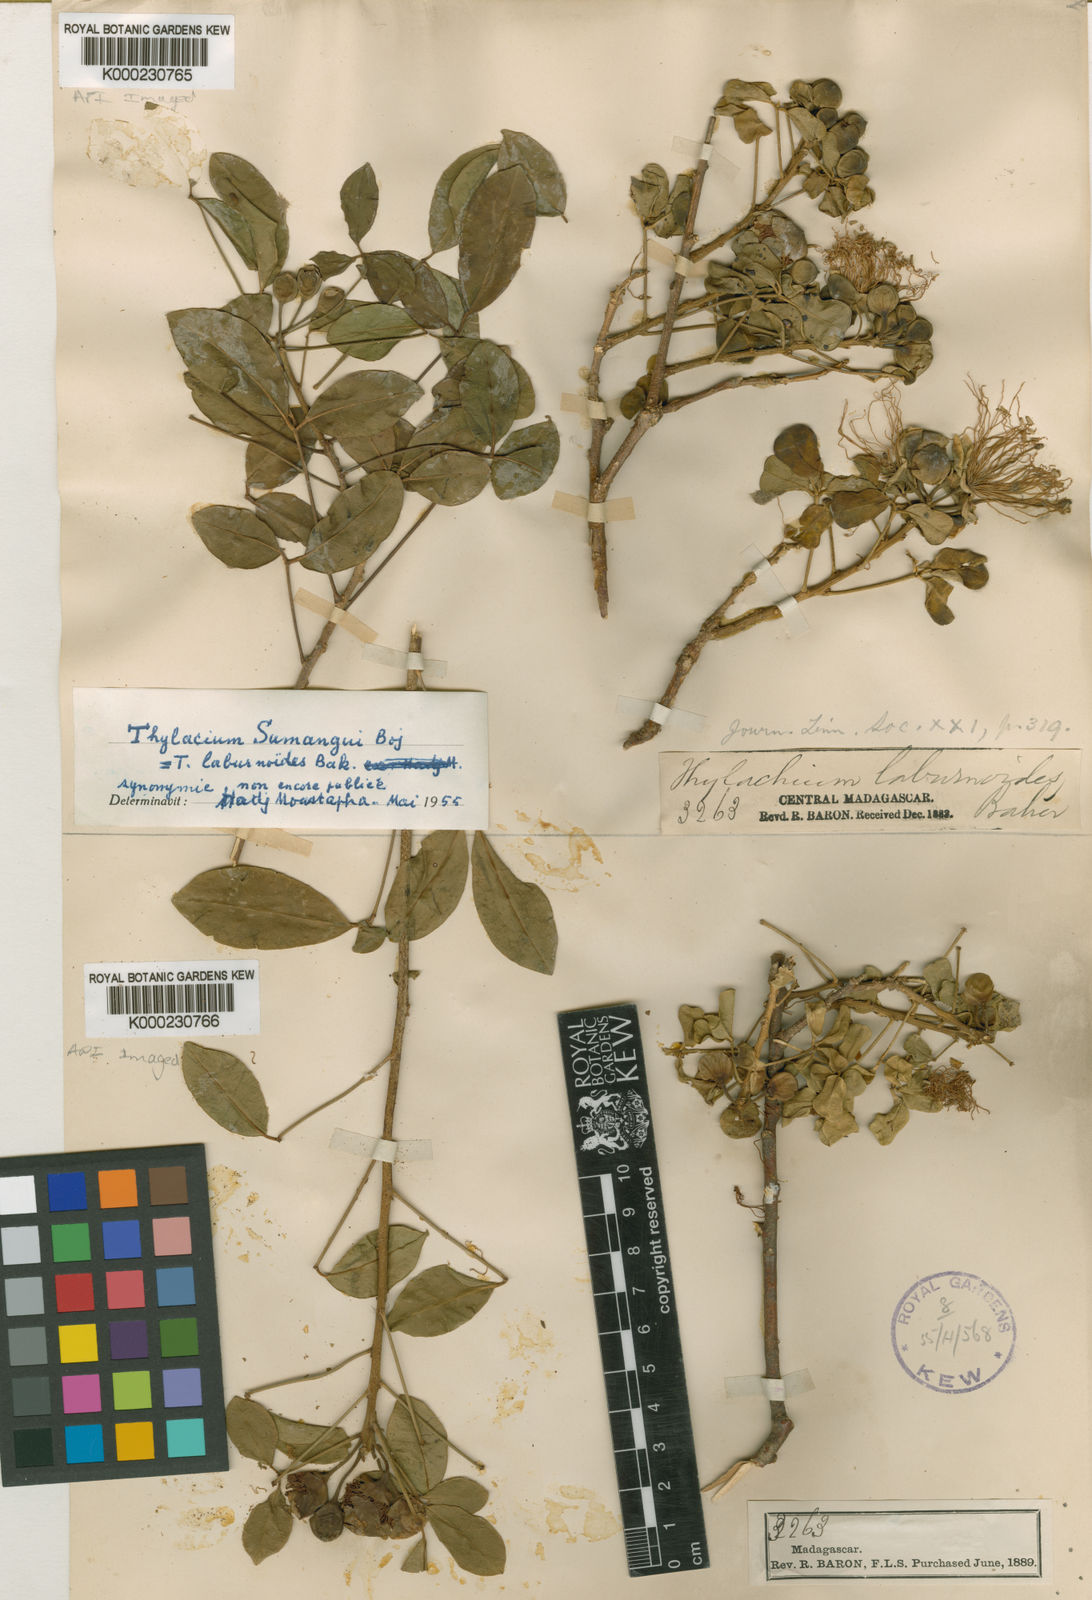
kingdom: Plantae
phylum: Tracheophyta
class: Magnoliopsida
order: Brassicales
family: Capparaceae
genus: Thilachium
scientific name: Thilachium sumangui
